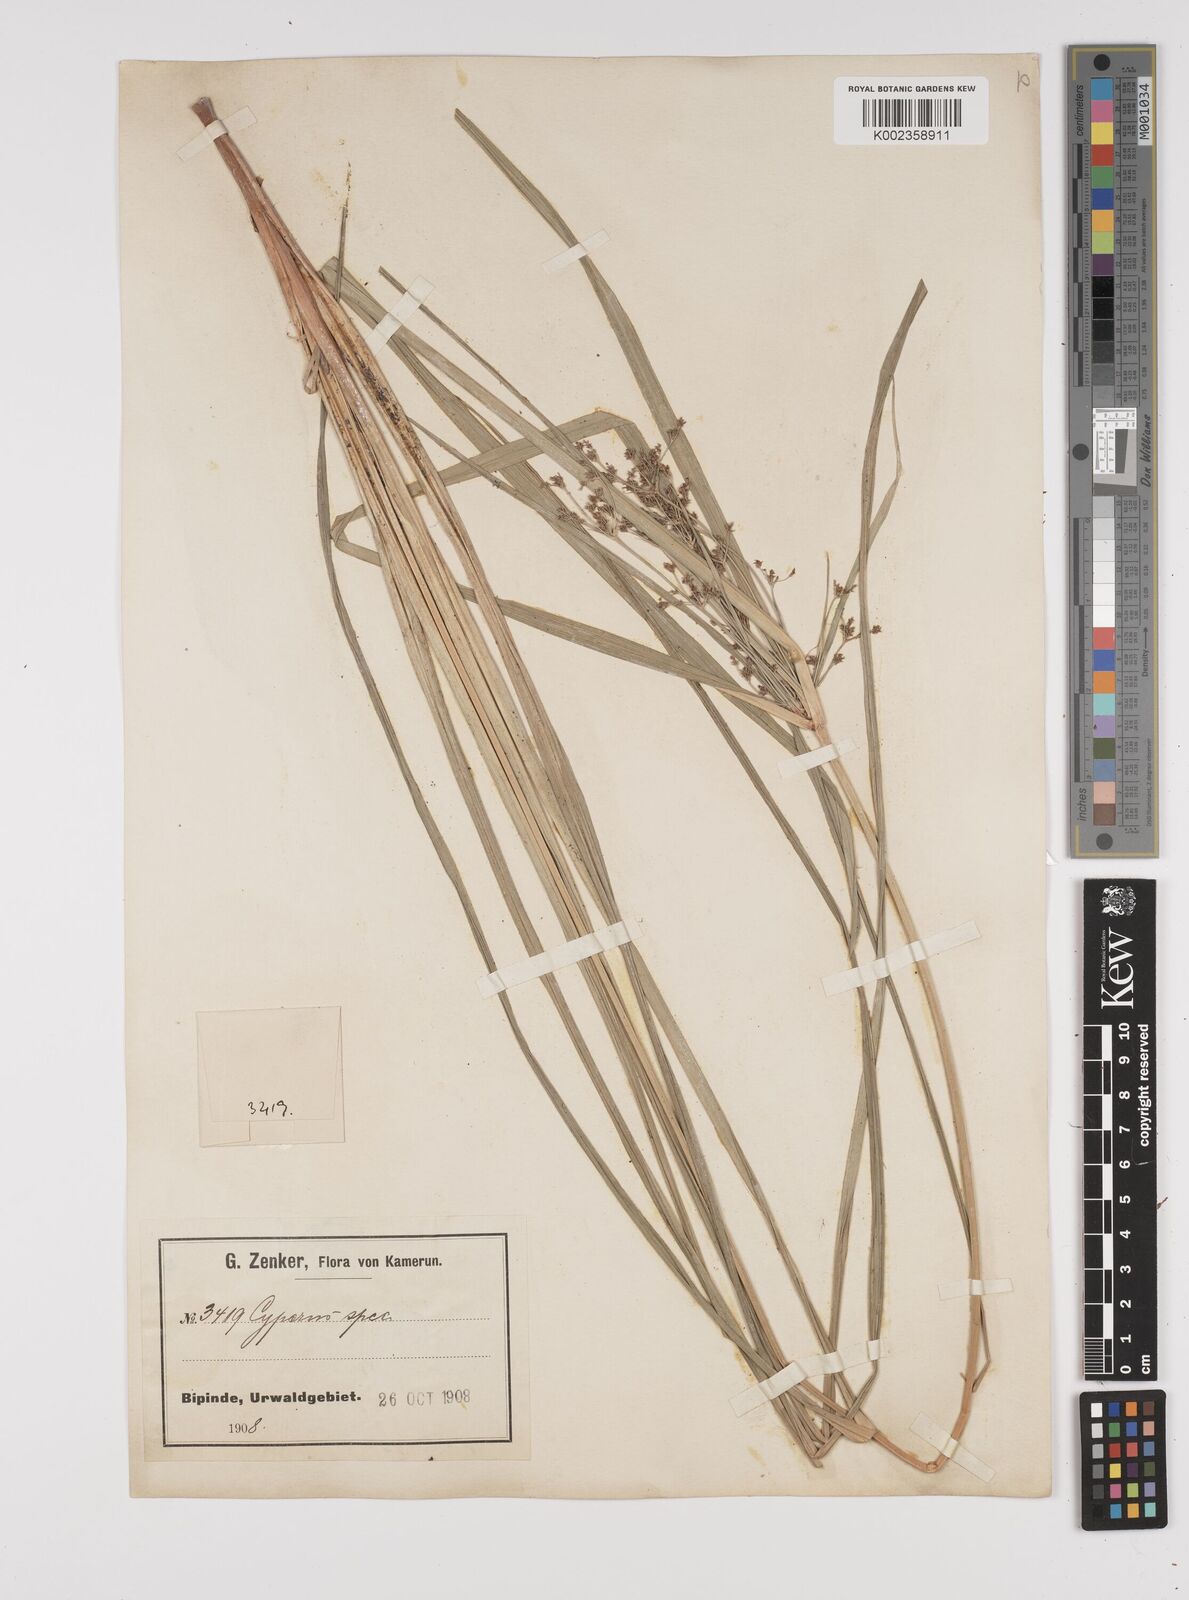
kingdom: Plantae
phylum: Tracheophyta
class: Liliopsida
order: Poales
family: Cyperaceae
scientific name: Cyperaceae
